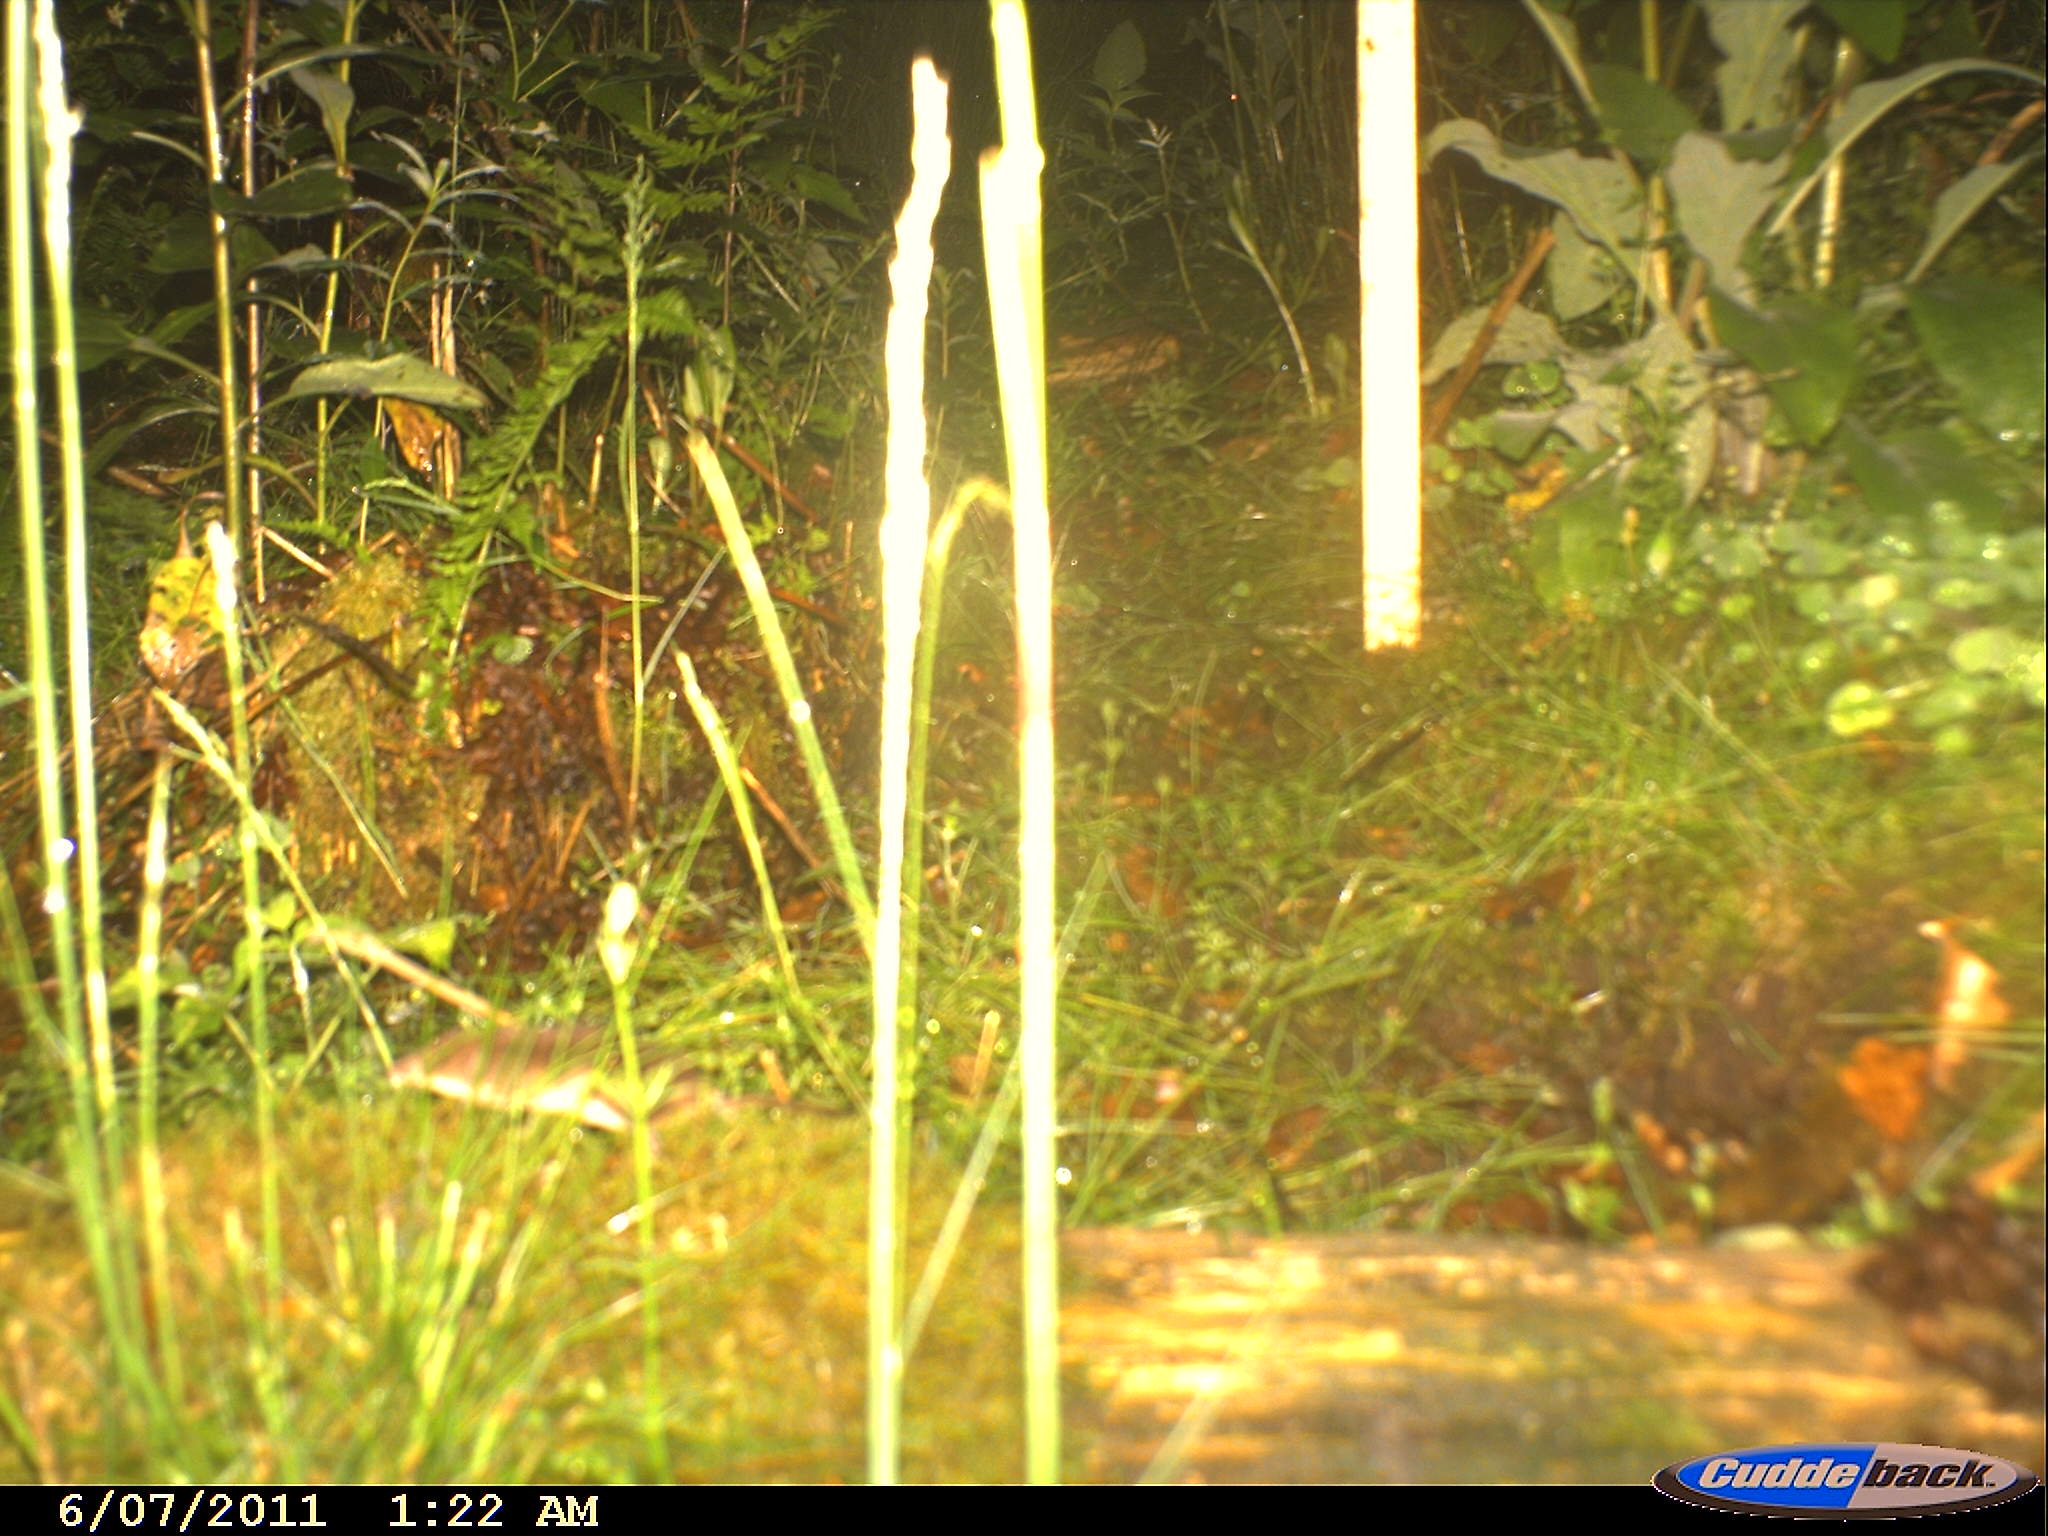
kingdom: Animalia
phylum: Chordata
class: Mammalia
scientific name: Mammalia
